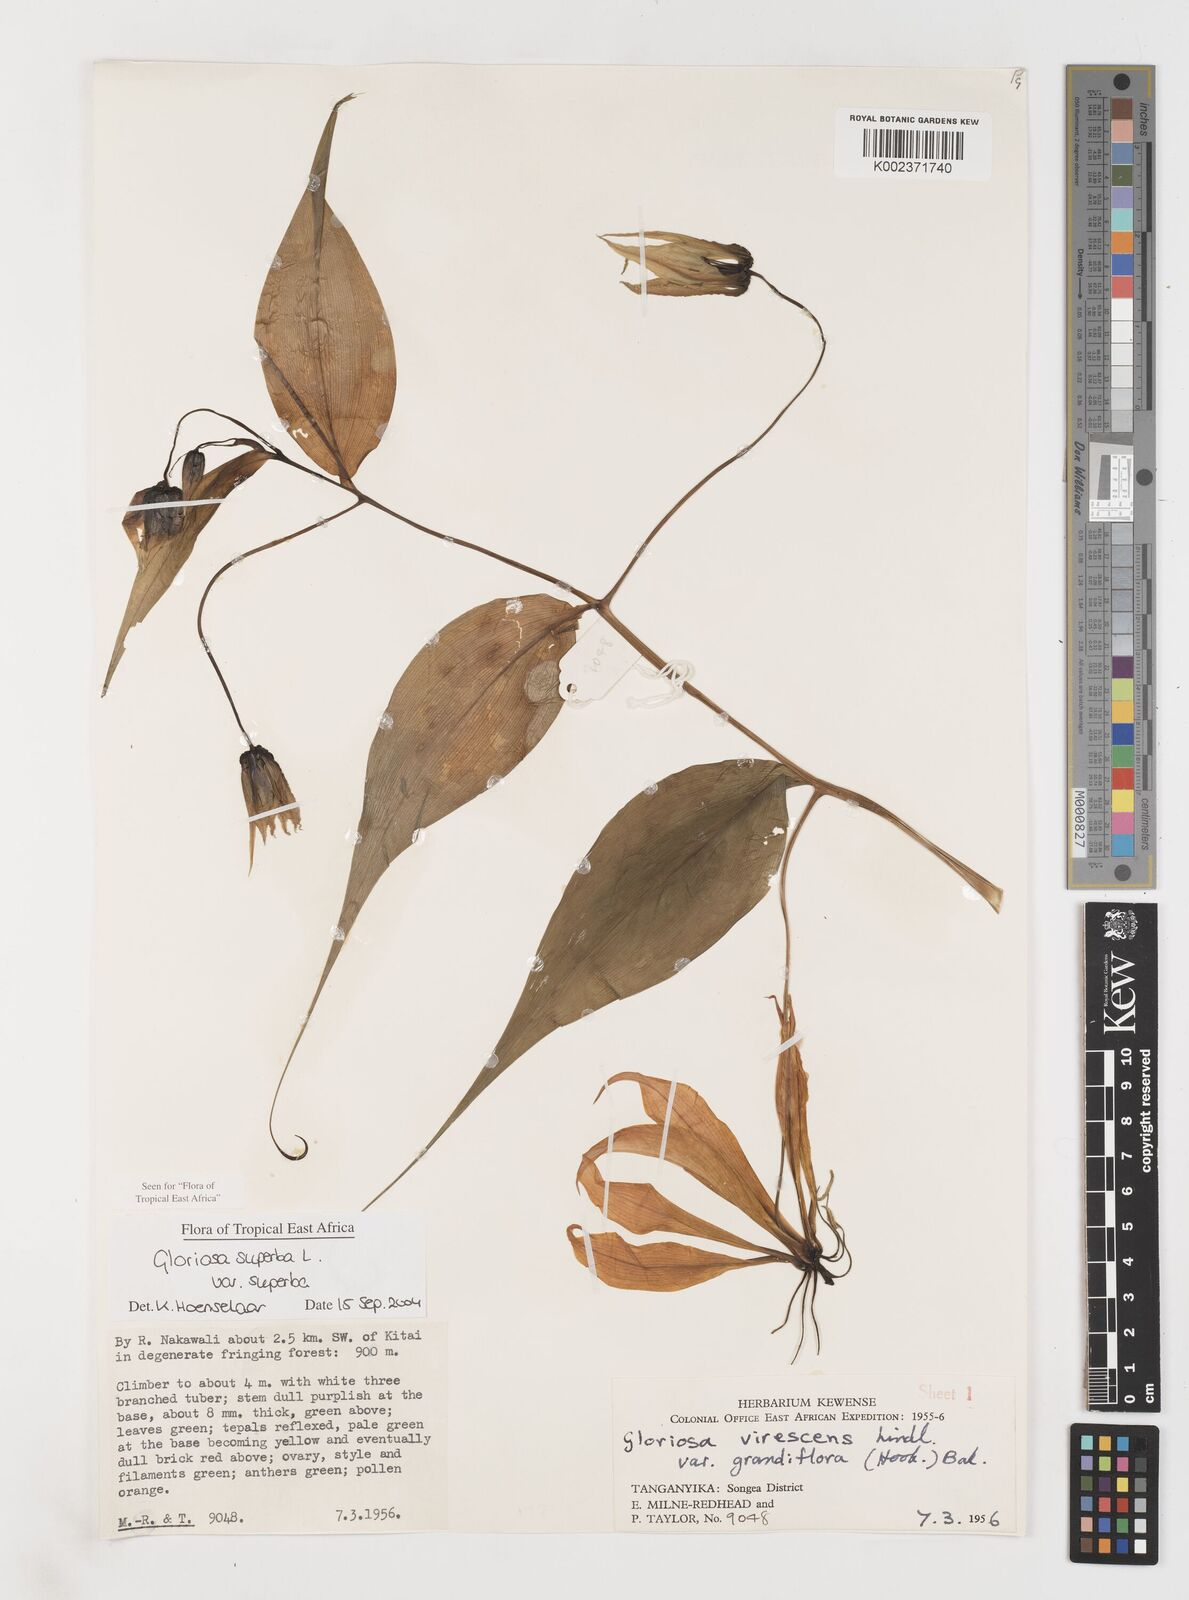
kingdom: Plantae
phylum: Tracheophyta
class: Liliopsida
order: Liliales
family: Colchicaceae
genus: Gloriosa
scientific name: Gloriosa simplex
